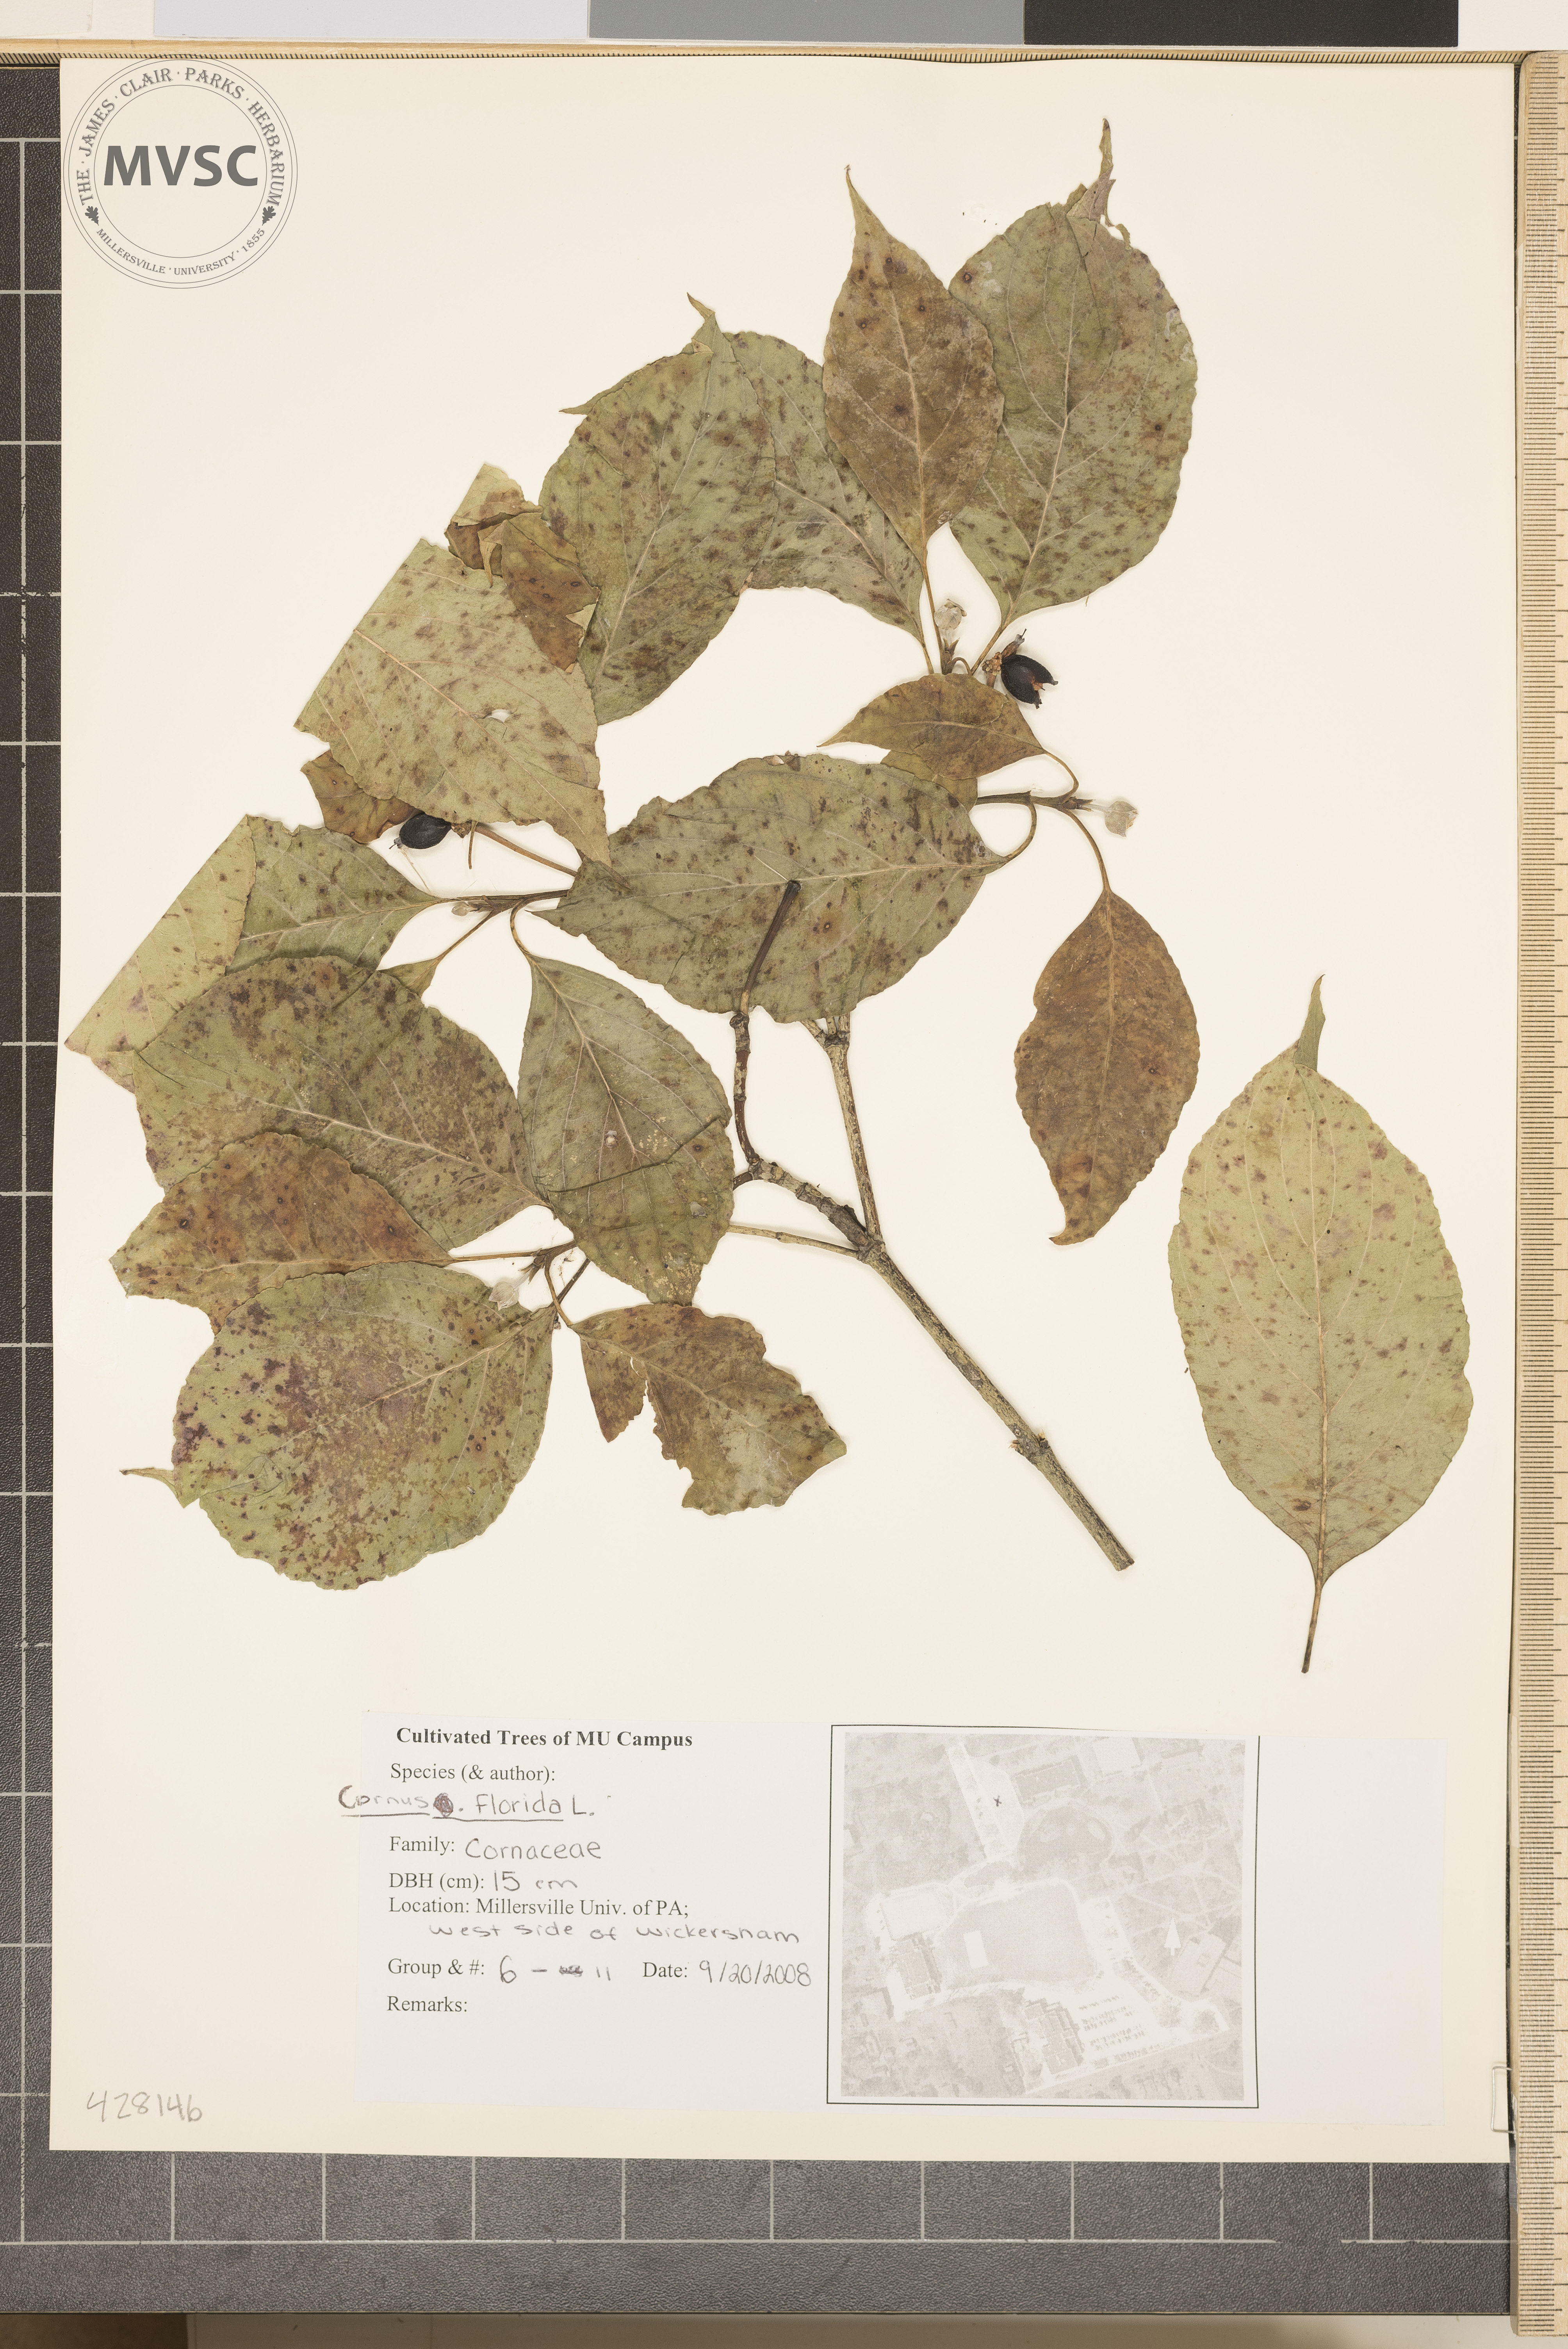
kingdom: Plantae
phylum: Tracheophyta
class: Magnoliopsida
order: Cornales
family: Cornaceae
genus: Cornus
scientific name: Cornus florida
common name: Flowering Dogwood
